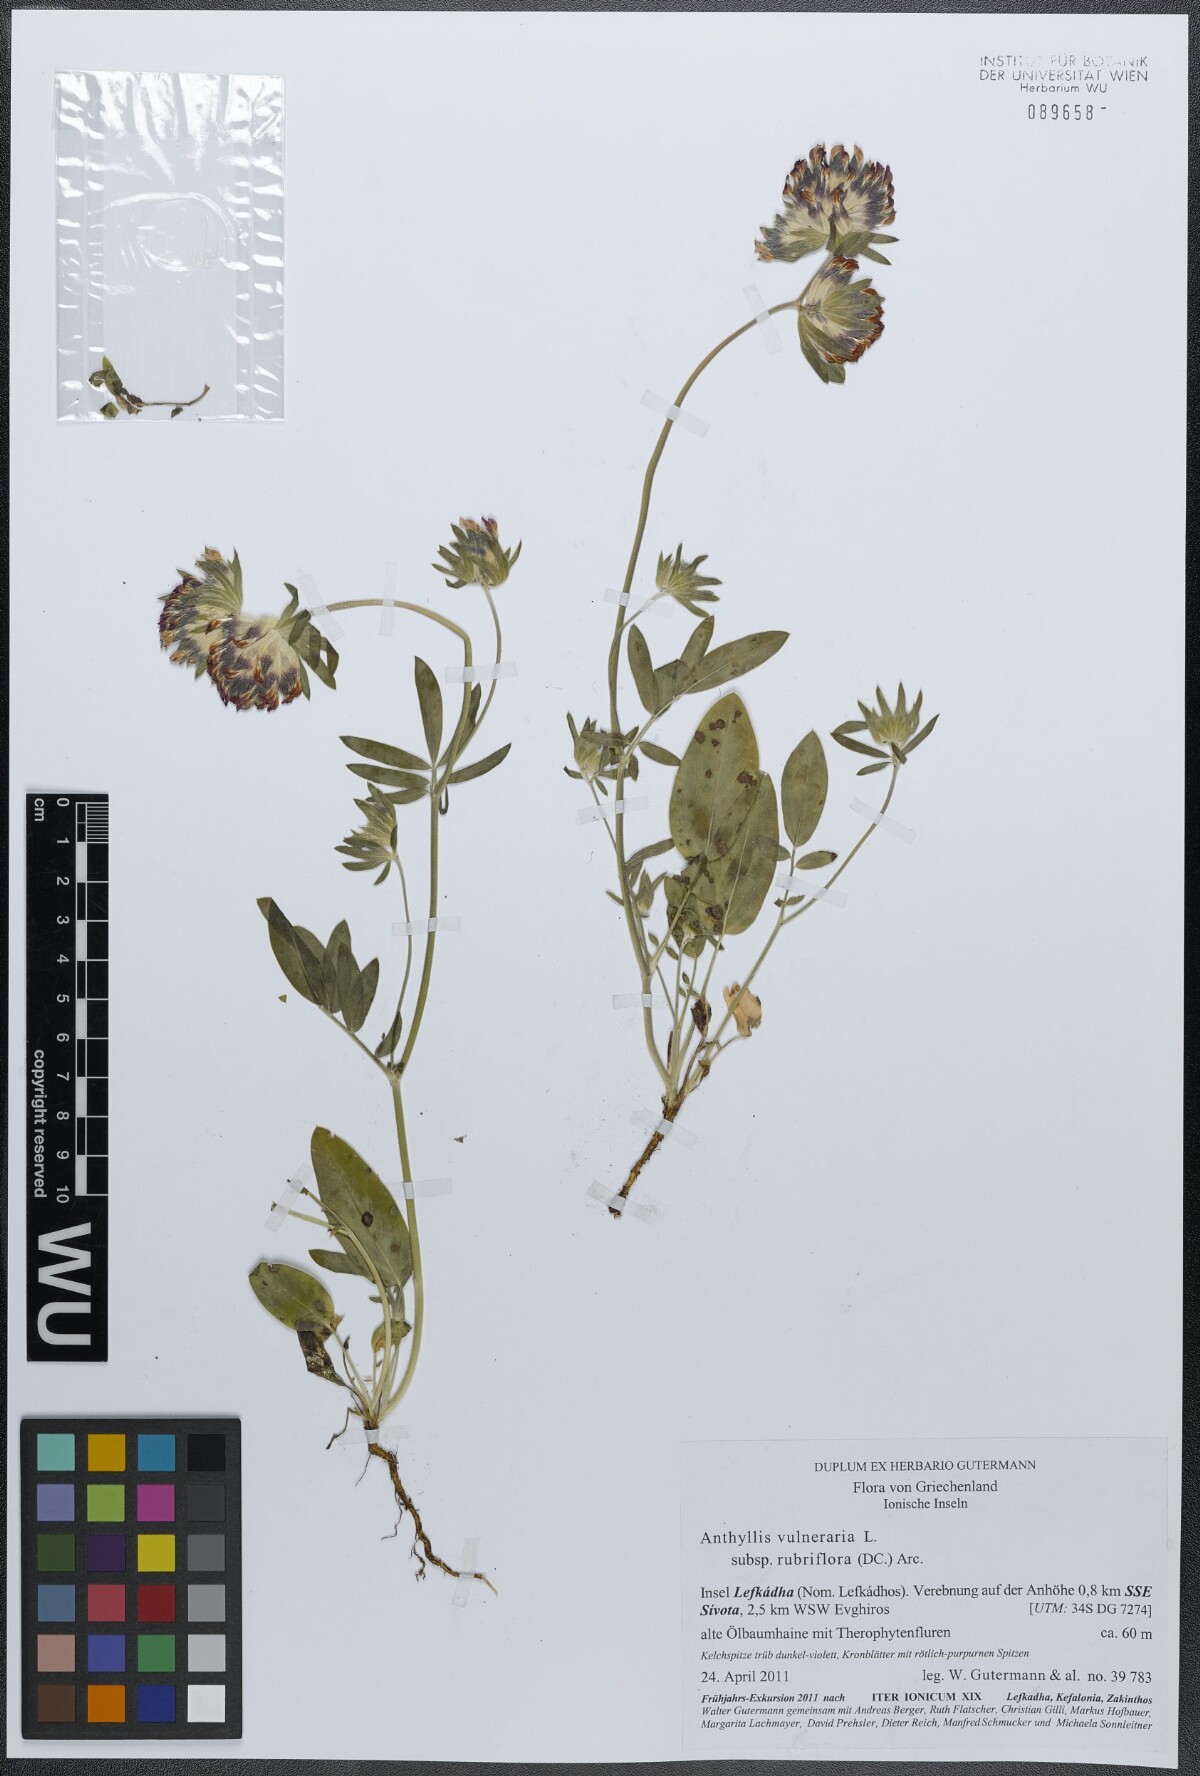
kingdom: Plantae
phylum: Tracheophyta
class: Magnoliopsida
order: Fabales
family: Fabaceae
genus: Anthyllis
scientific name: Anthyllis vulneraria
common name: Kidney vetch
